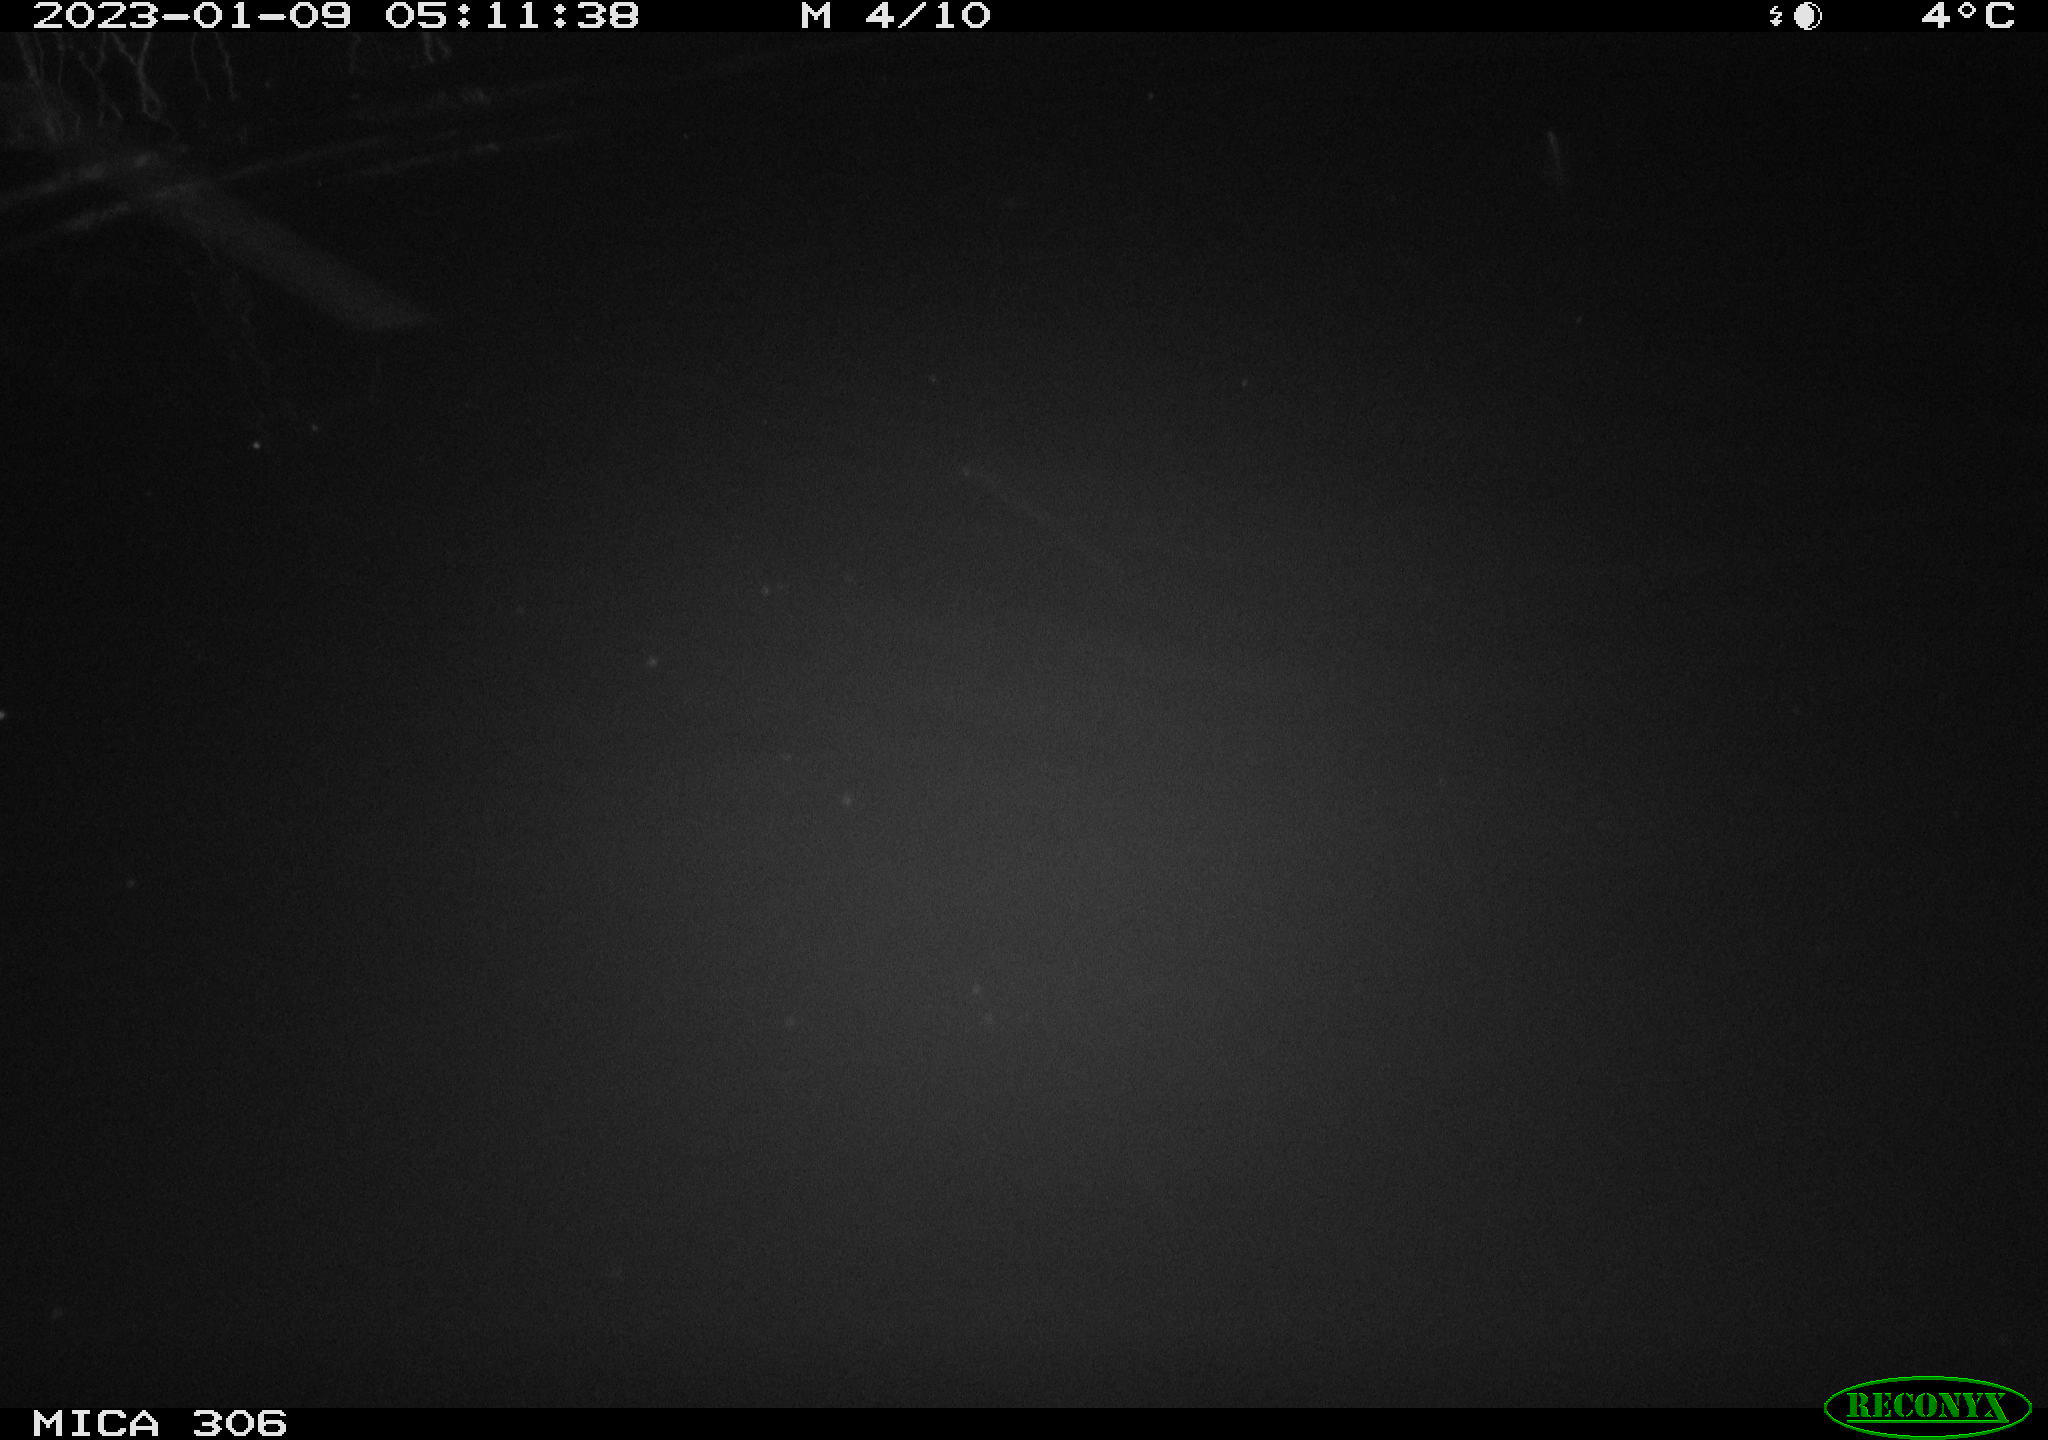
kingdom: Animalia
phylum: Chordata
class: Mammalia
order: Rodentia
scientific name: Rodentia
